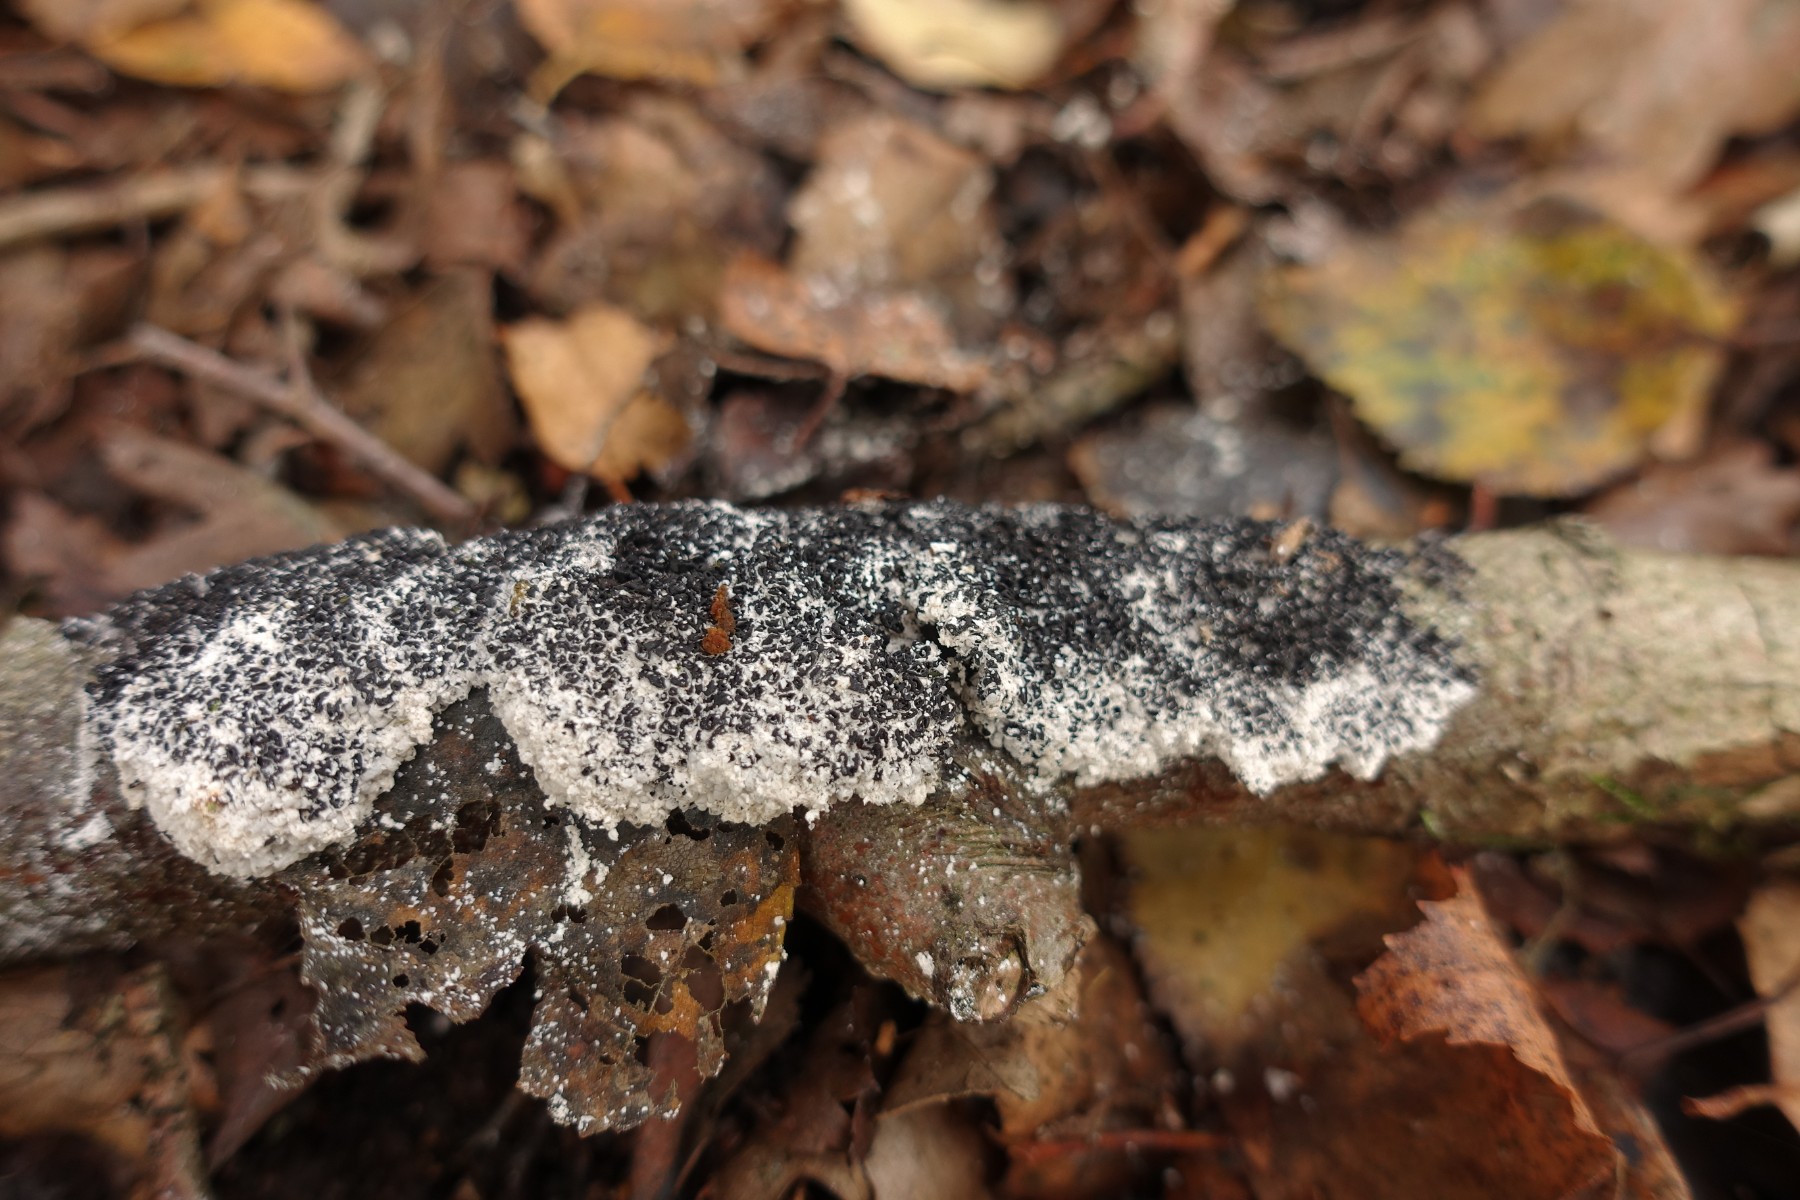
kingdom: Protozoa
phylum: Mycetozoa
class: Myxomycetes
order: Physarales
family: Physaraceae
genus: Fuligo
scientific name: Fuligo septica
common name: gul troldsmør
